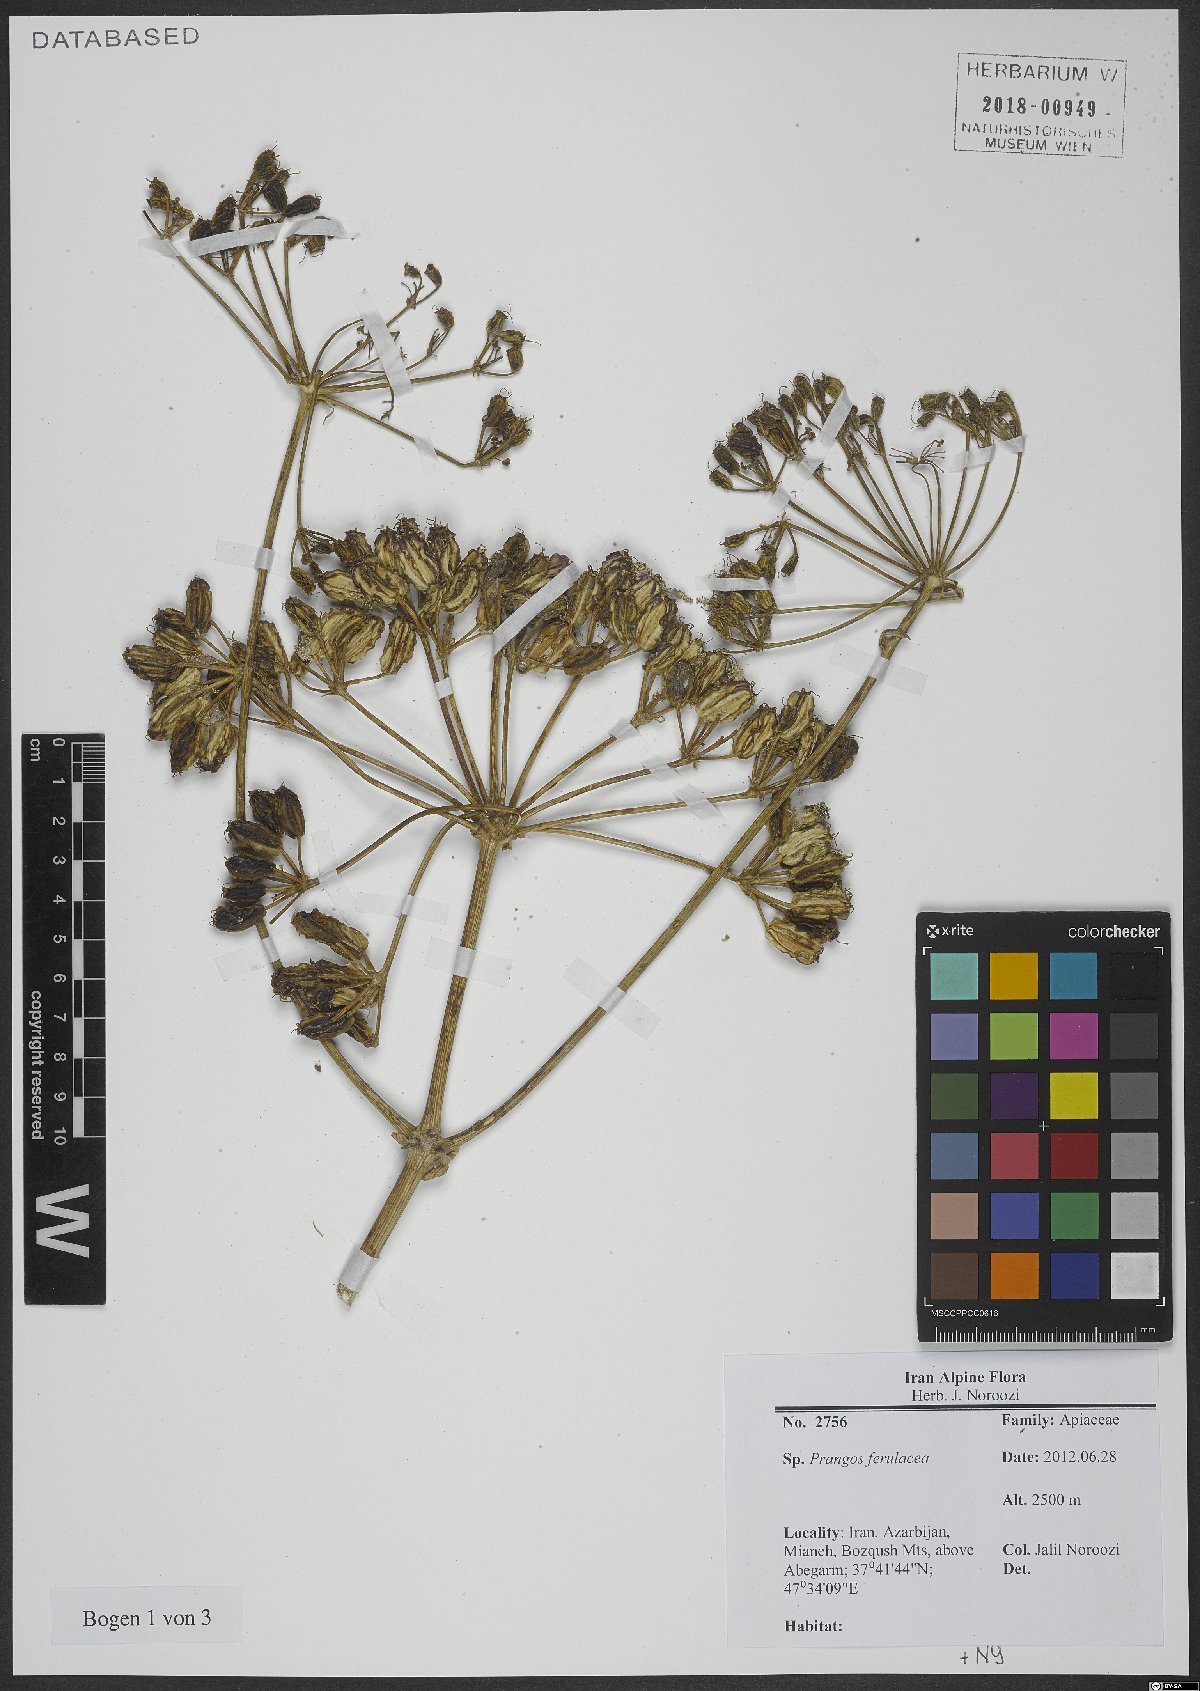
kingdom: Plantae
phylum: Tracheophyta
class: Magnoliopsida
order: Apiales
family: Apiaceae
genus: Prangos
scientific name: Prangos ferulacea
